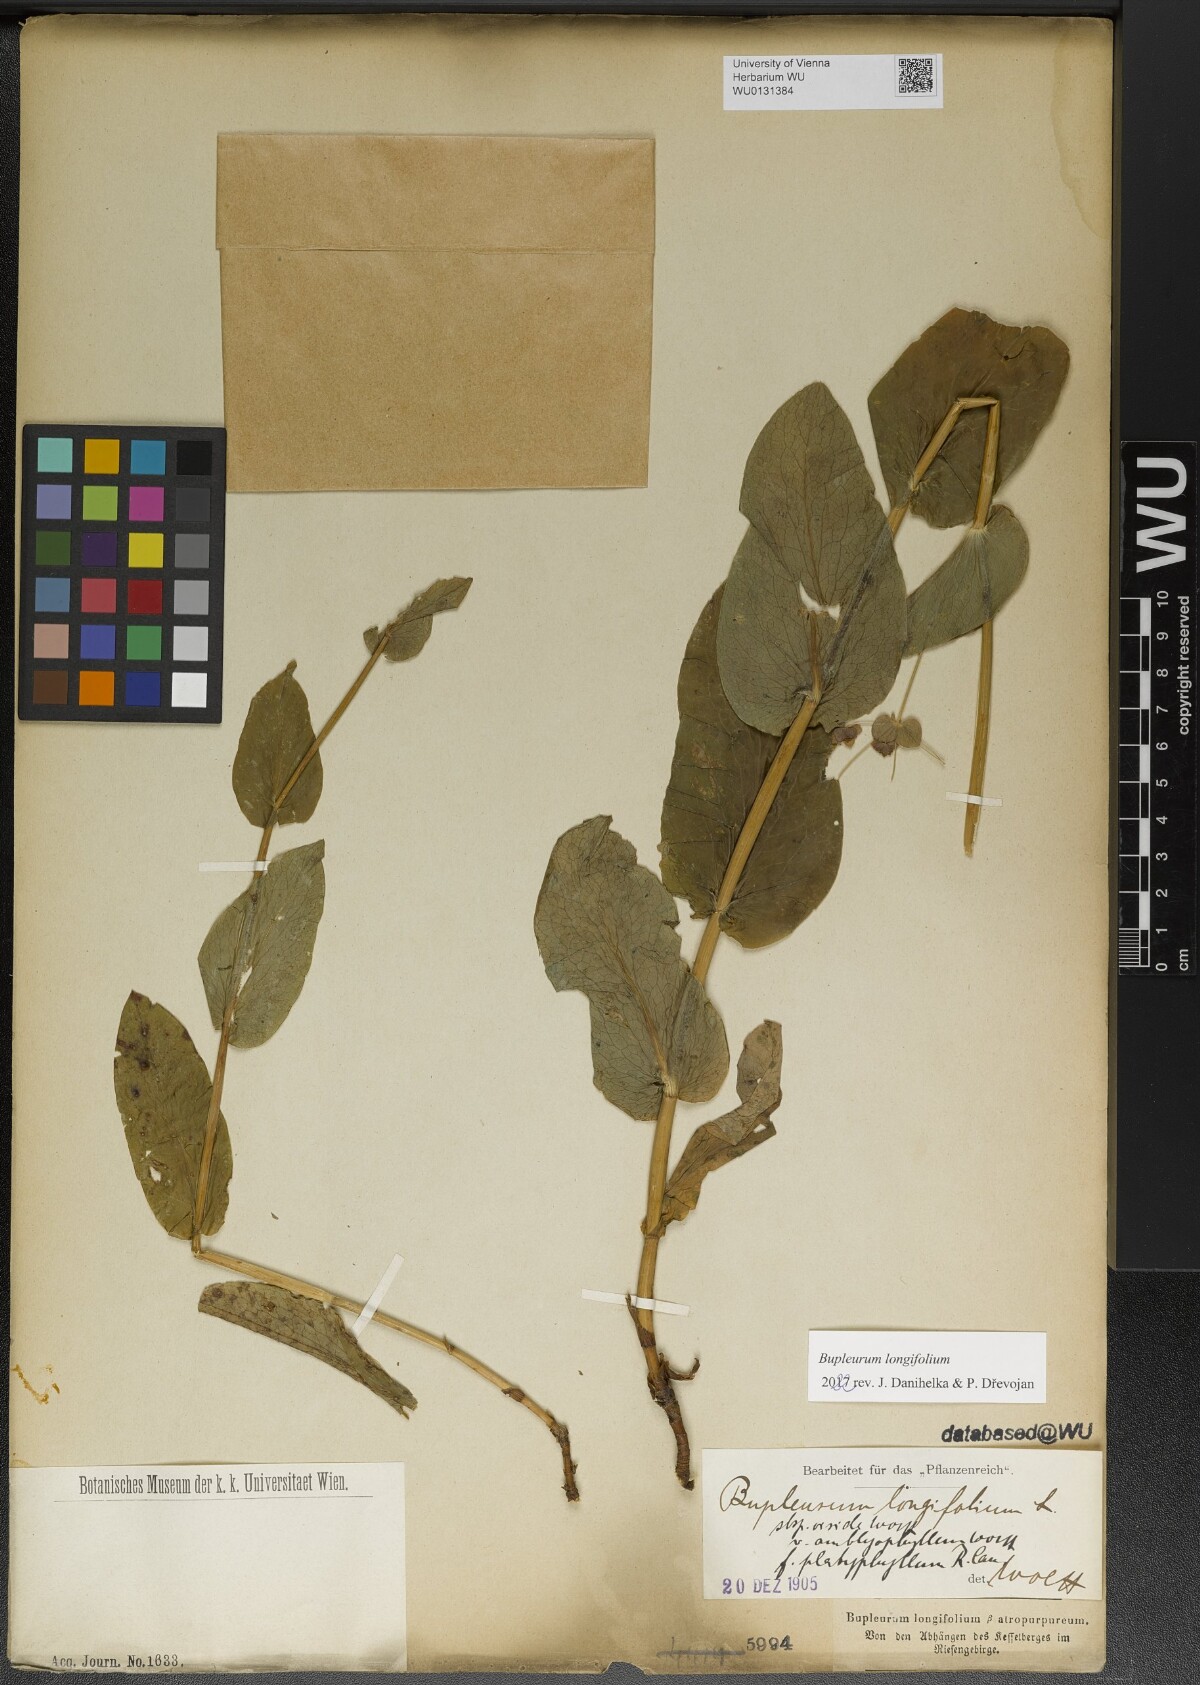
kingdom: Plantae
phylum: Tracheophyta
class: Magnoliopsida
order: Apiales
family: Apiaceae
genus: Bupleurum
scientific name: Bupleurum longifolium
